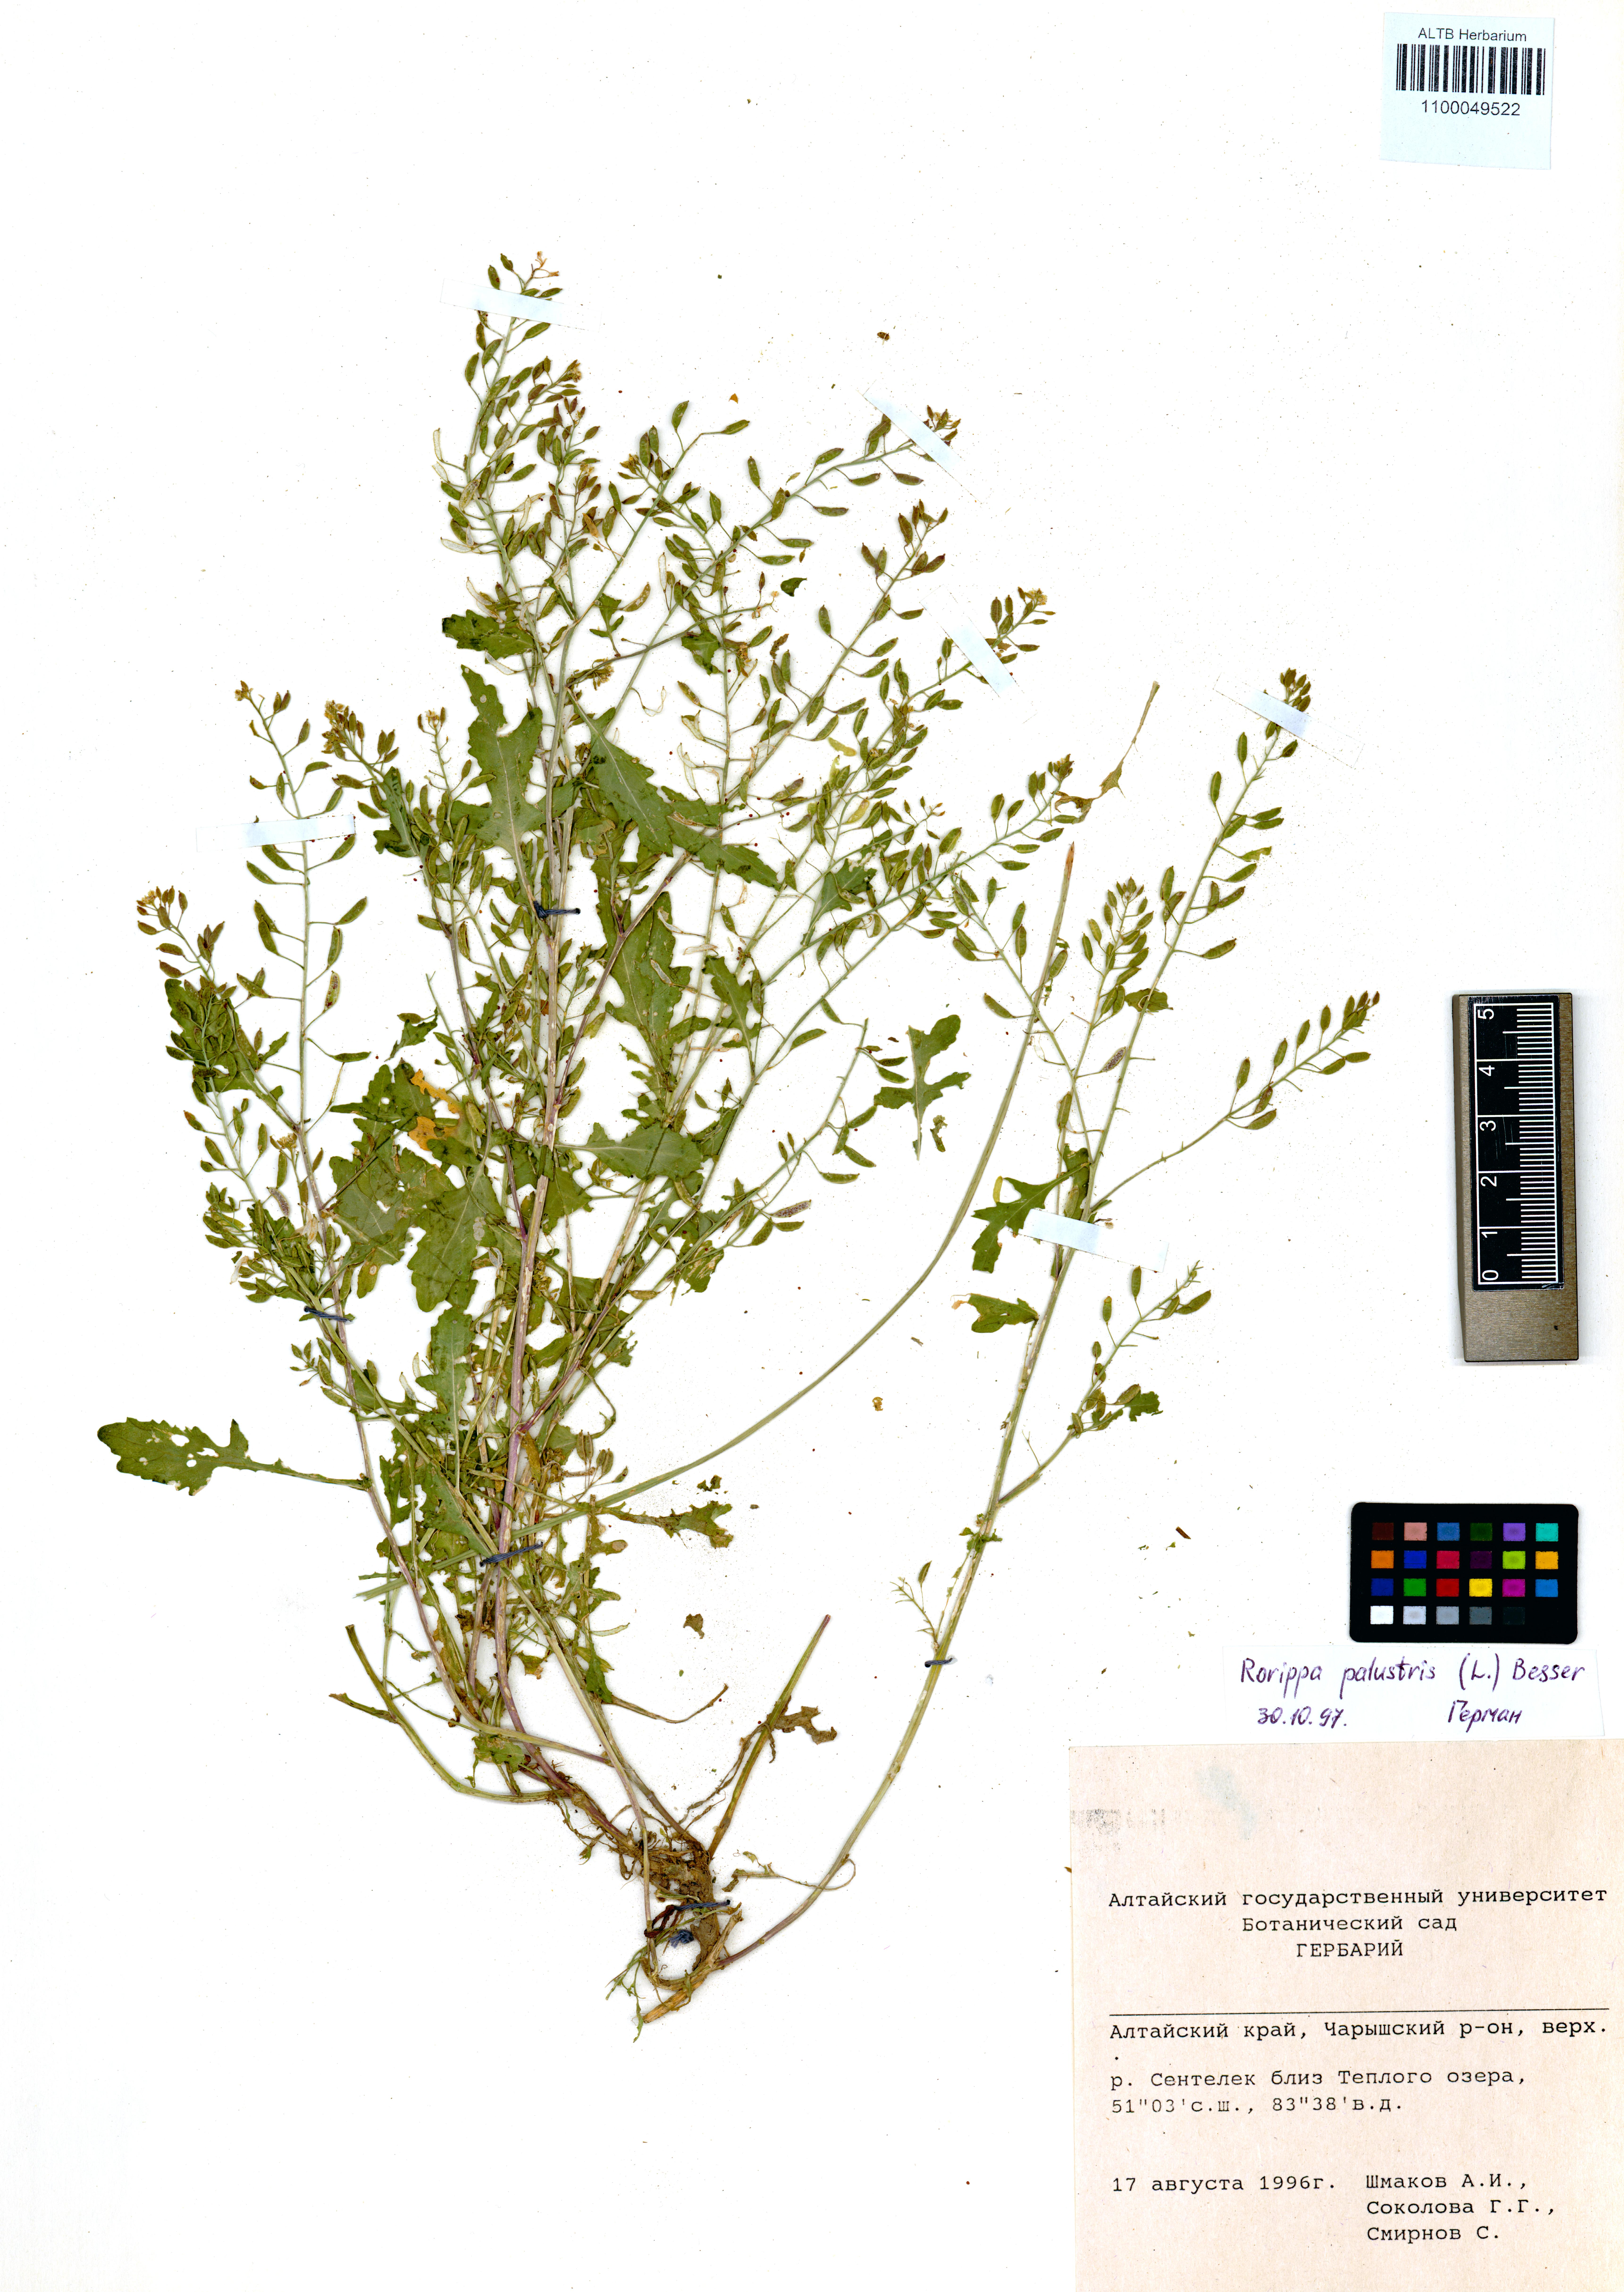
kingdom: Plantae
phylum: Tracheophyta
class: Magnoliopsida
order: Brassicales
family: Brassicaceae
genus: Rorippa
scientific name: Rorippa palustris
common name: Marsh yellow-cress
